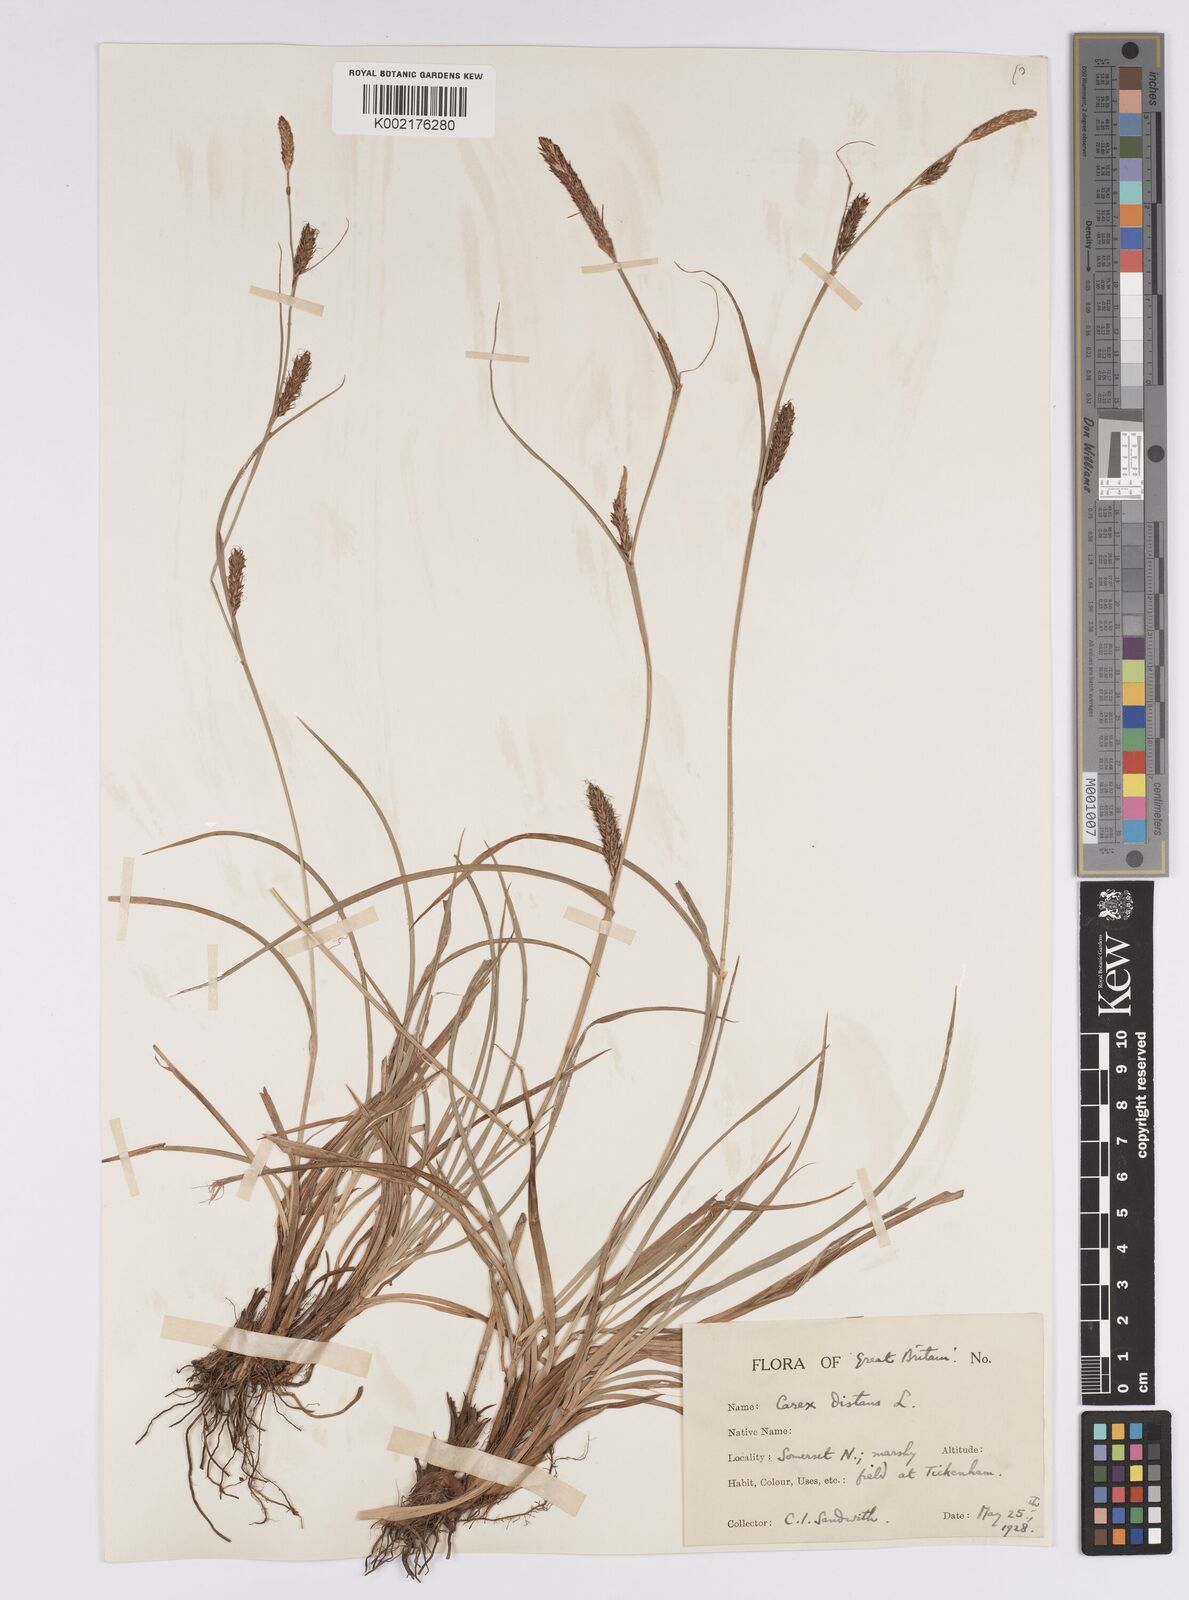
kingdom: Plantae
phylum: Tracheophyta
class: Liliopsida
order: Poales
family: Cyperaceae
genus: Carex
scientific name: Carex distans
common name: Distant sedge
